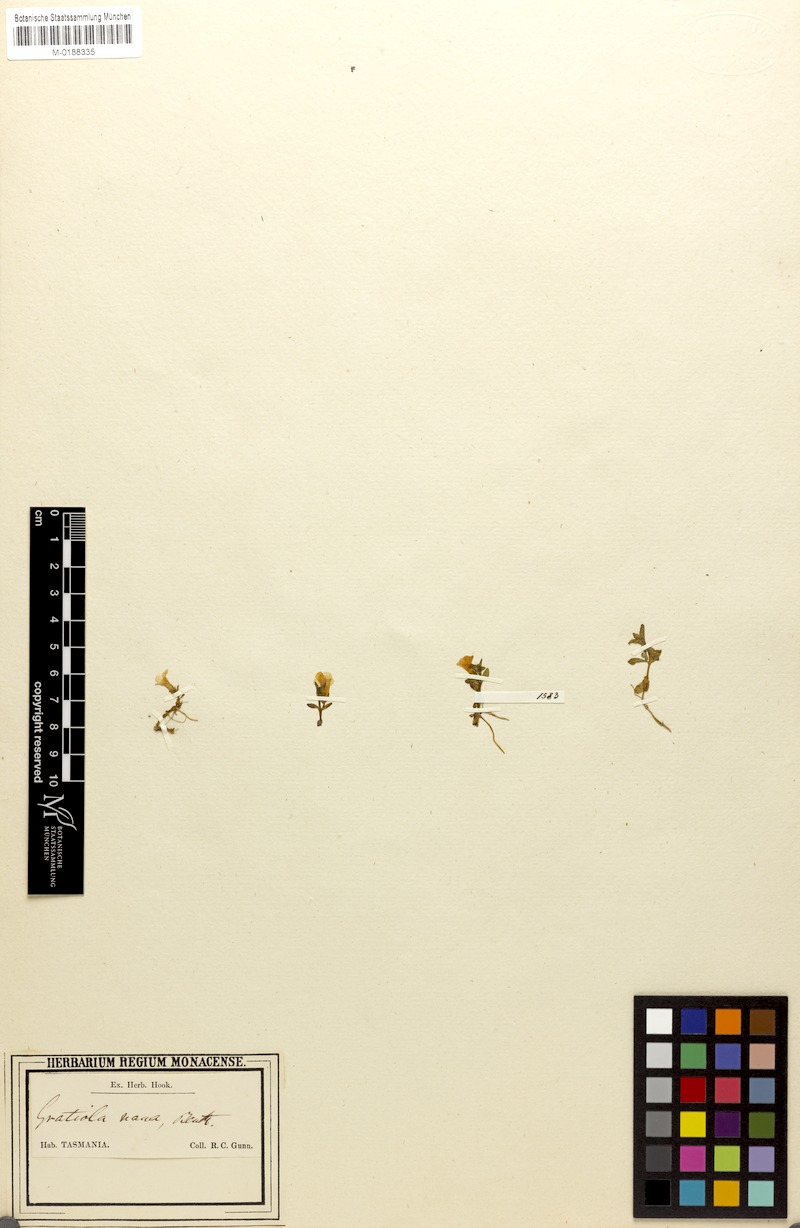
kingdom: Plantae
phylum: Tracheophyta
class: Magnoliopsida
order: Lamiales
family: Plantaginaceae
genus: Gratiola
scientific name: Gratiola nana
